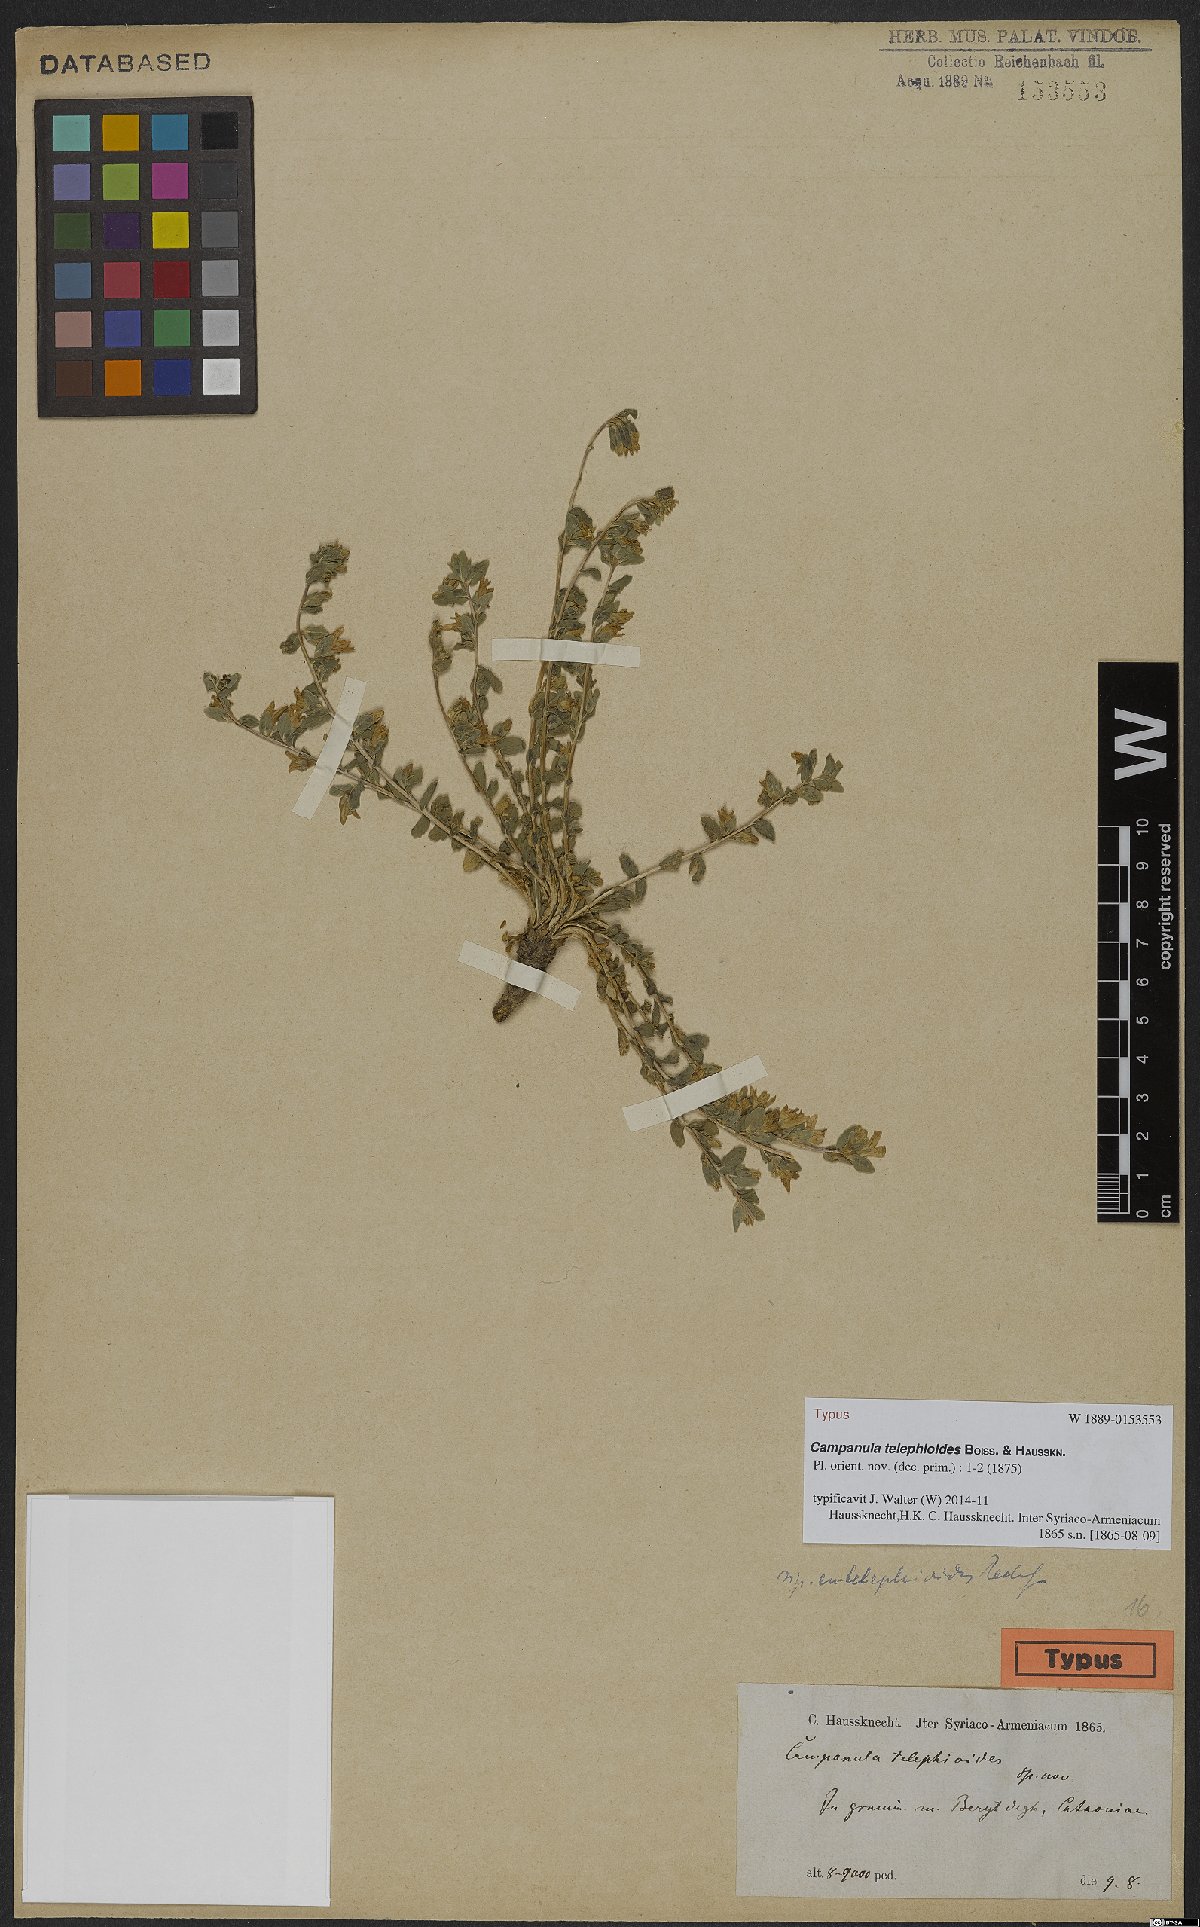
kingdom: Plantae
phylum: Tracheophyta
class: Magnoliopsida
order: Asterales
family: Campanulaceae
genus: Campanula
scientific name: Campanula telephioides
